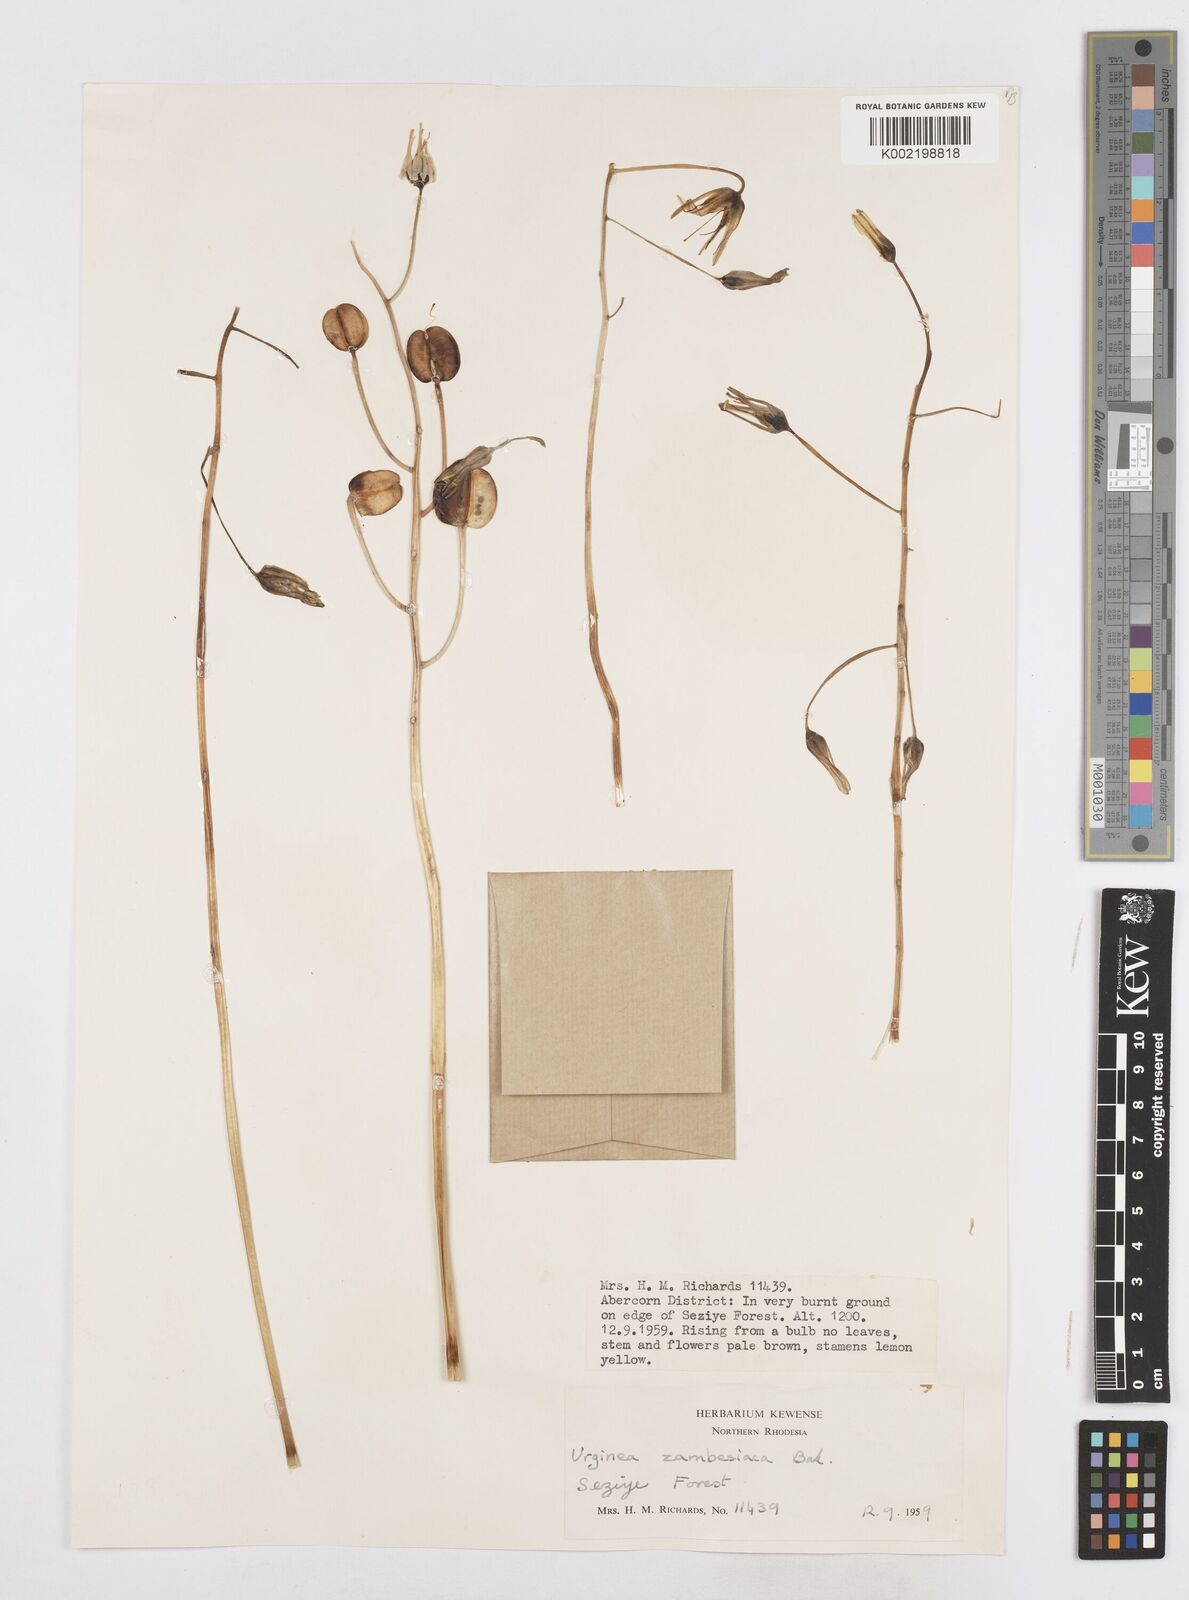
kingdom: Plantae
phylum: Tracheophyta
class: Liliopsida
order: Asparagales
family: Asparagaceae
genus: Drimia
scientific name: Drimia indica
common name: Indian-squill
